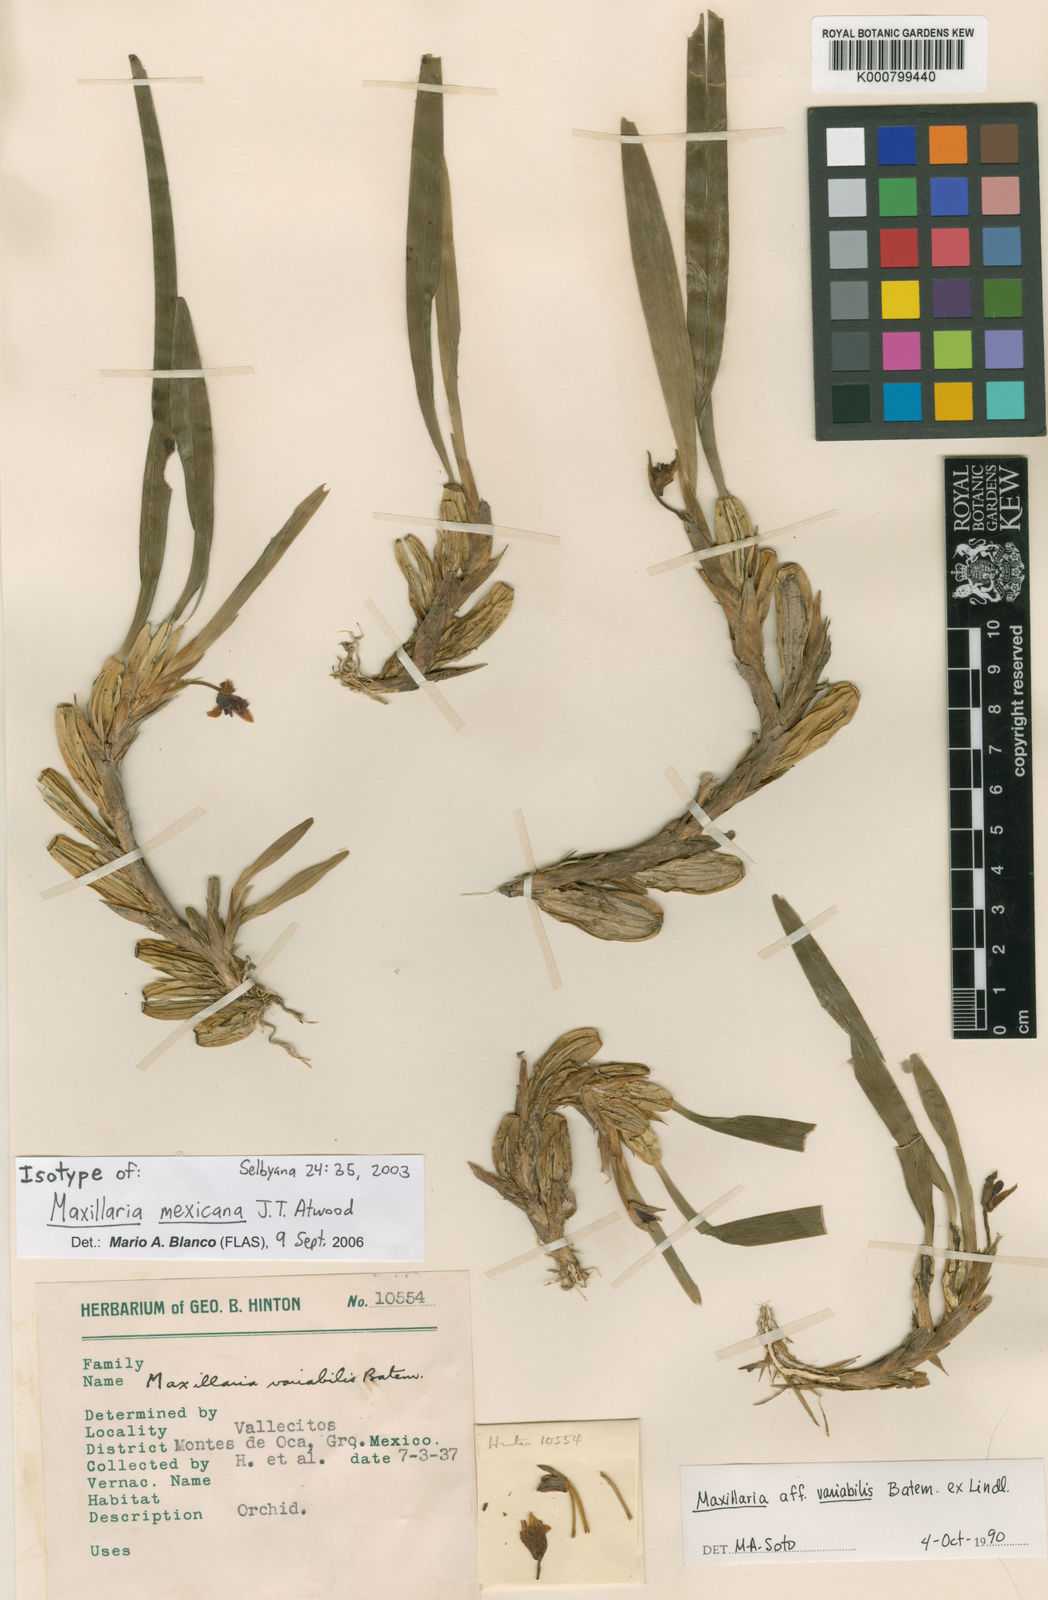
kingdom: Plantae
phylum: Tracheophyta
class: Liliopsida
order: Asparagales
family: Orchidaceae
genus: Maxillaria
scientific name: Maxillaria henchmannii
